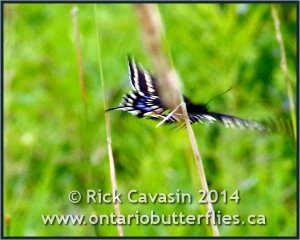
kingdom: Animalia
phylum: Arthropoda
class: Insecta
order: Lepidoptera
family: Papilionidae
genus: Papilio
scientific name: Papilio polyxenes
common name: Black Swallowtail
